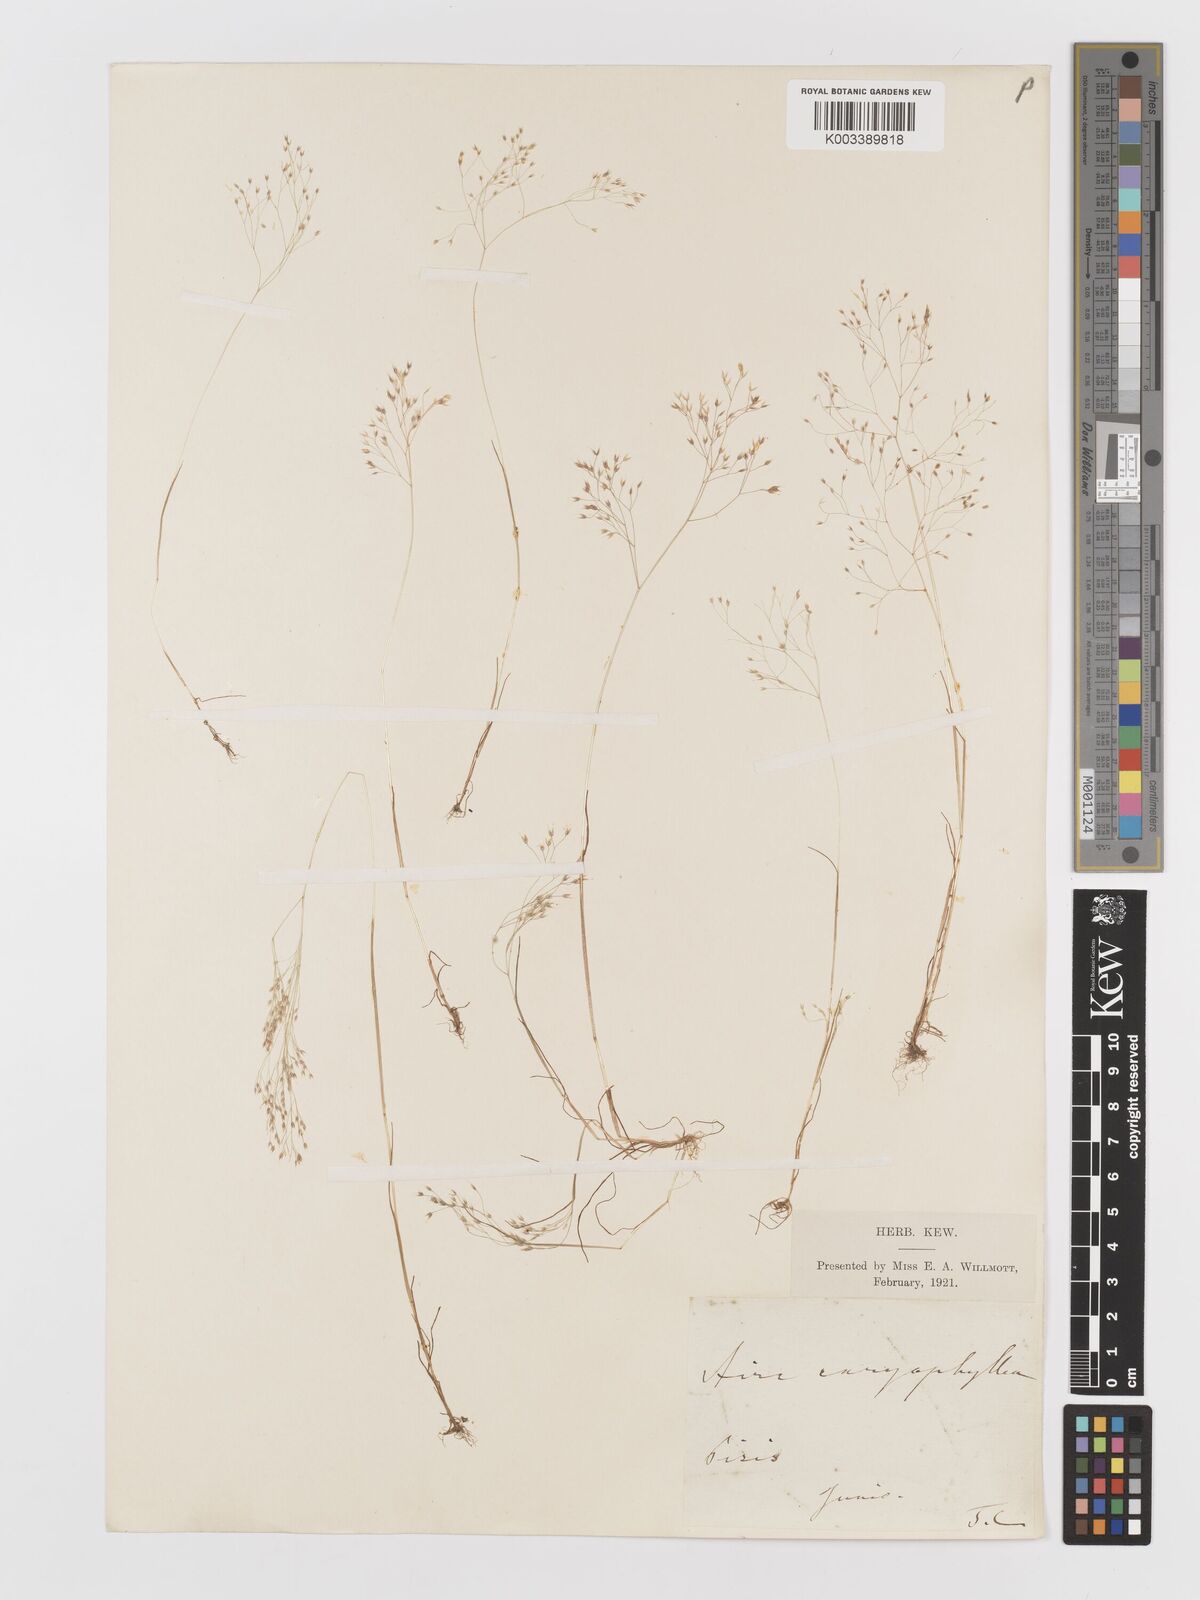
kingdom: Plantae
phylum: Tracheophyta
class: Liliopsida
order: Poales
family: Poaceae
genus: Aira
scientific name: Aira elegans
